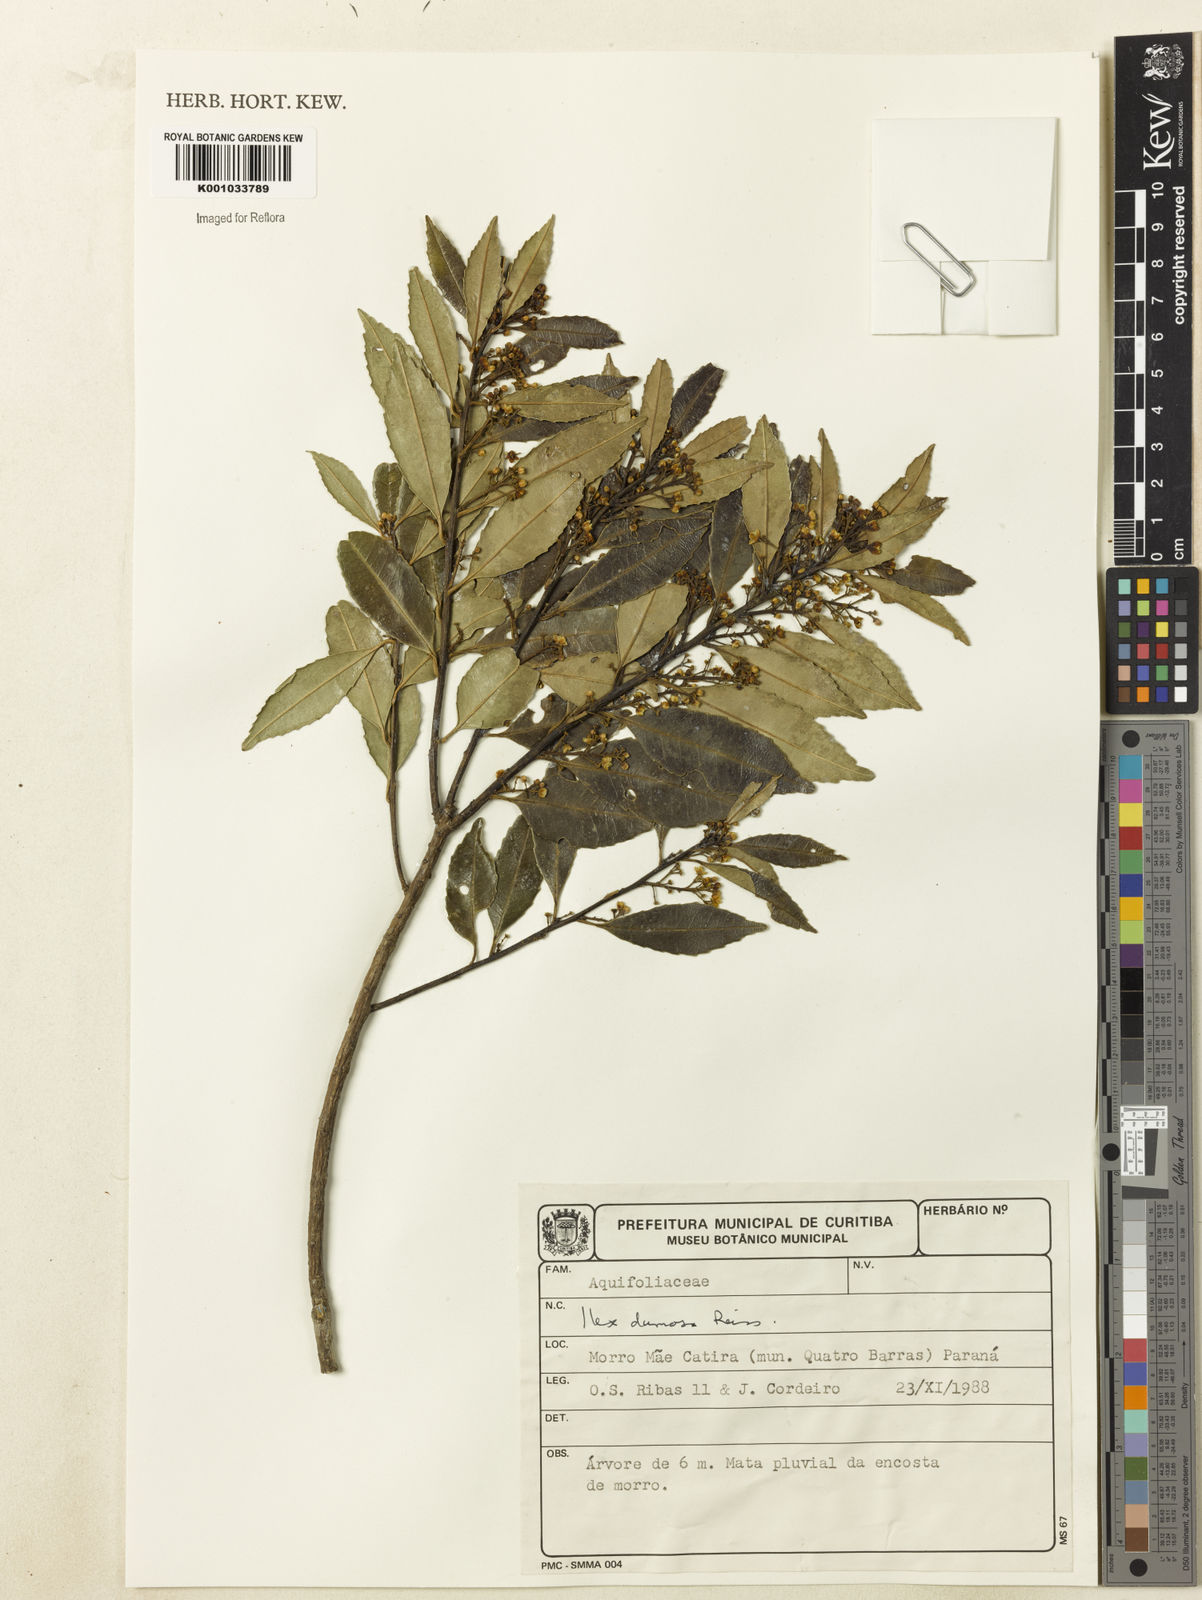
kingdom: Plantae
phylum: Tracheophyta
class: Magnoliopsida
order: Aquifoliales
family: Aquifoliaceae
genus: Ilex
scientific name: Ilex dumosa
